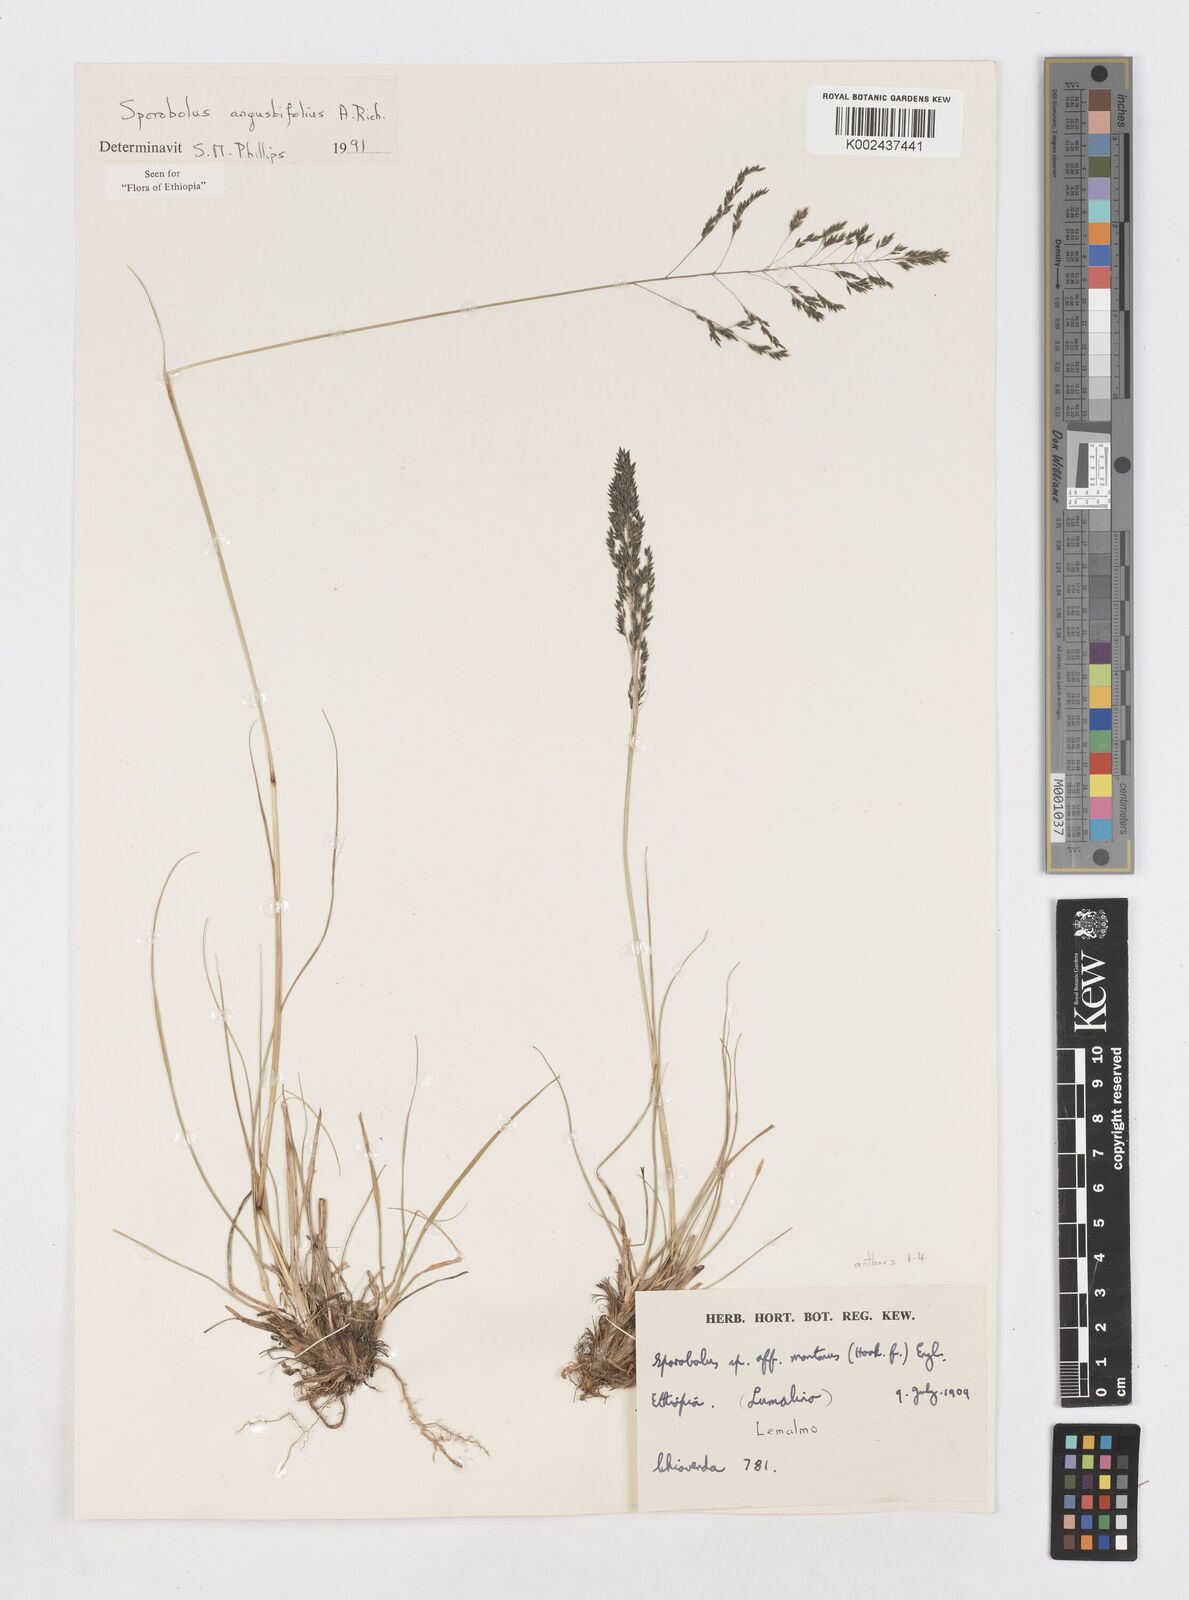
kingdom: Plantae
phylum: Tracheophyta
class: Liliopsida
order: Poales
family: Poaceae
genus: Sporobolus
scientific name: Sporobolus angustifolius
